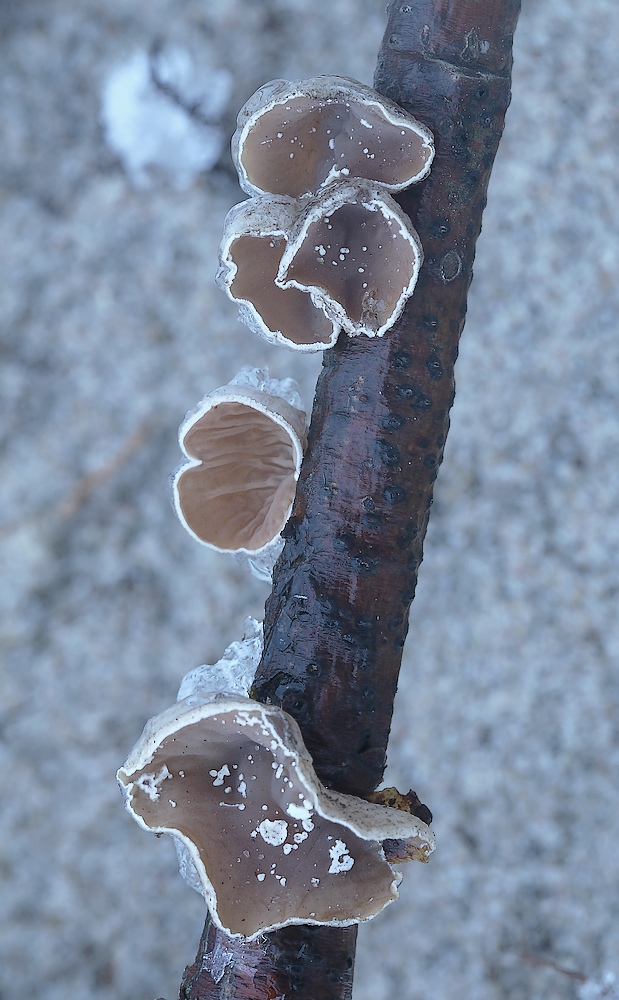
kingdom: Fungi
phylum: Basidiomycota
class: Agaricomycetes
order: Agaricales
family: Schizophyllaceae
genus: Schizophyllum
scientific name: Schizophyllum amplum
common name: poppel-hængeøre
